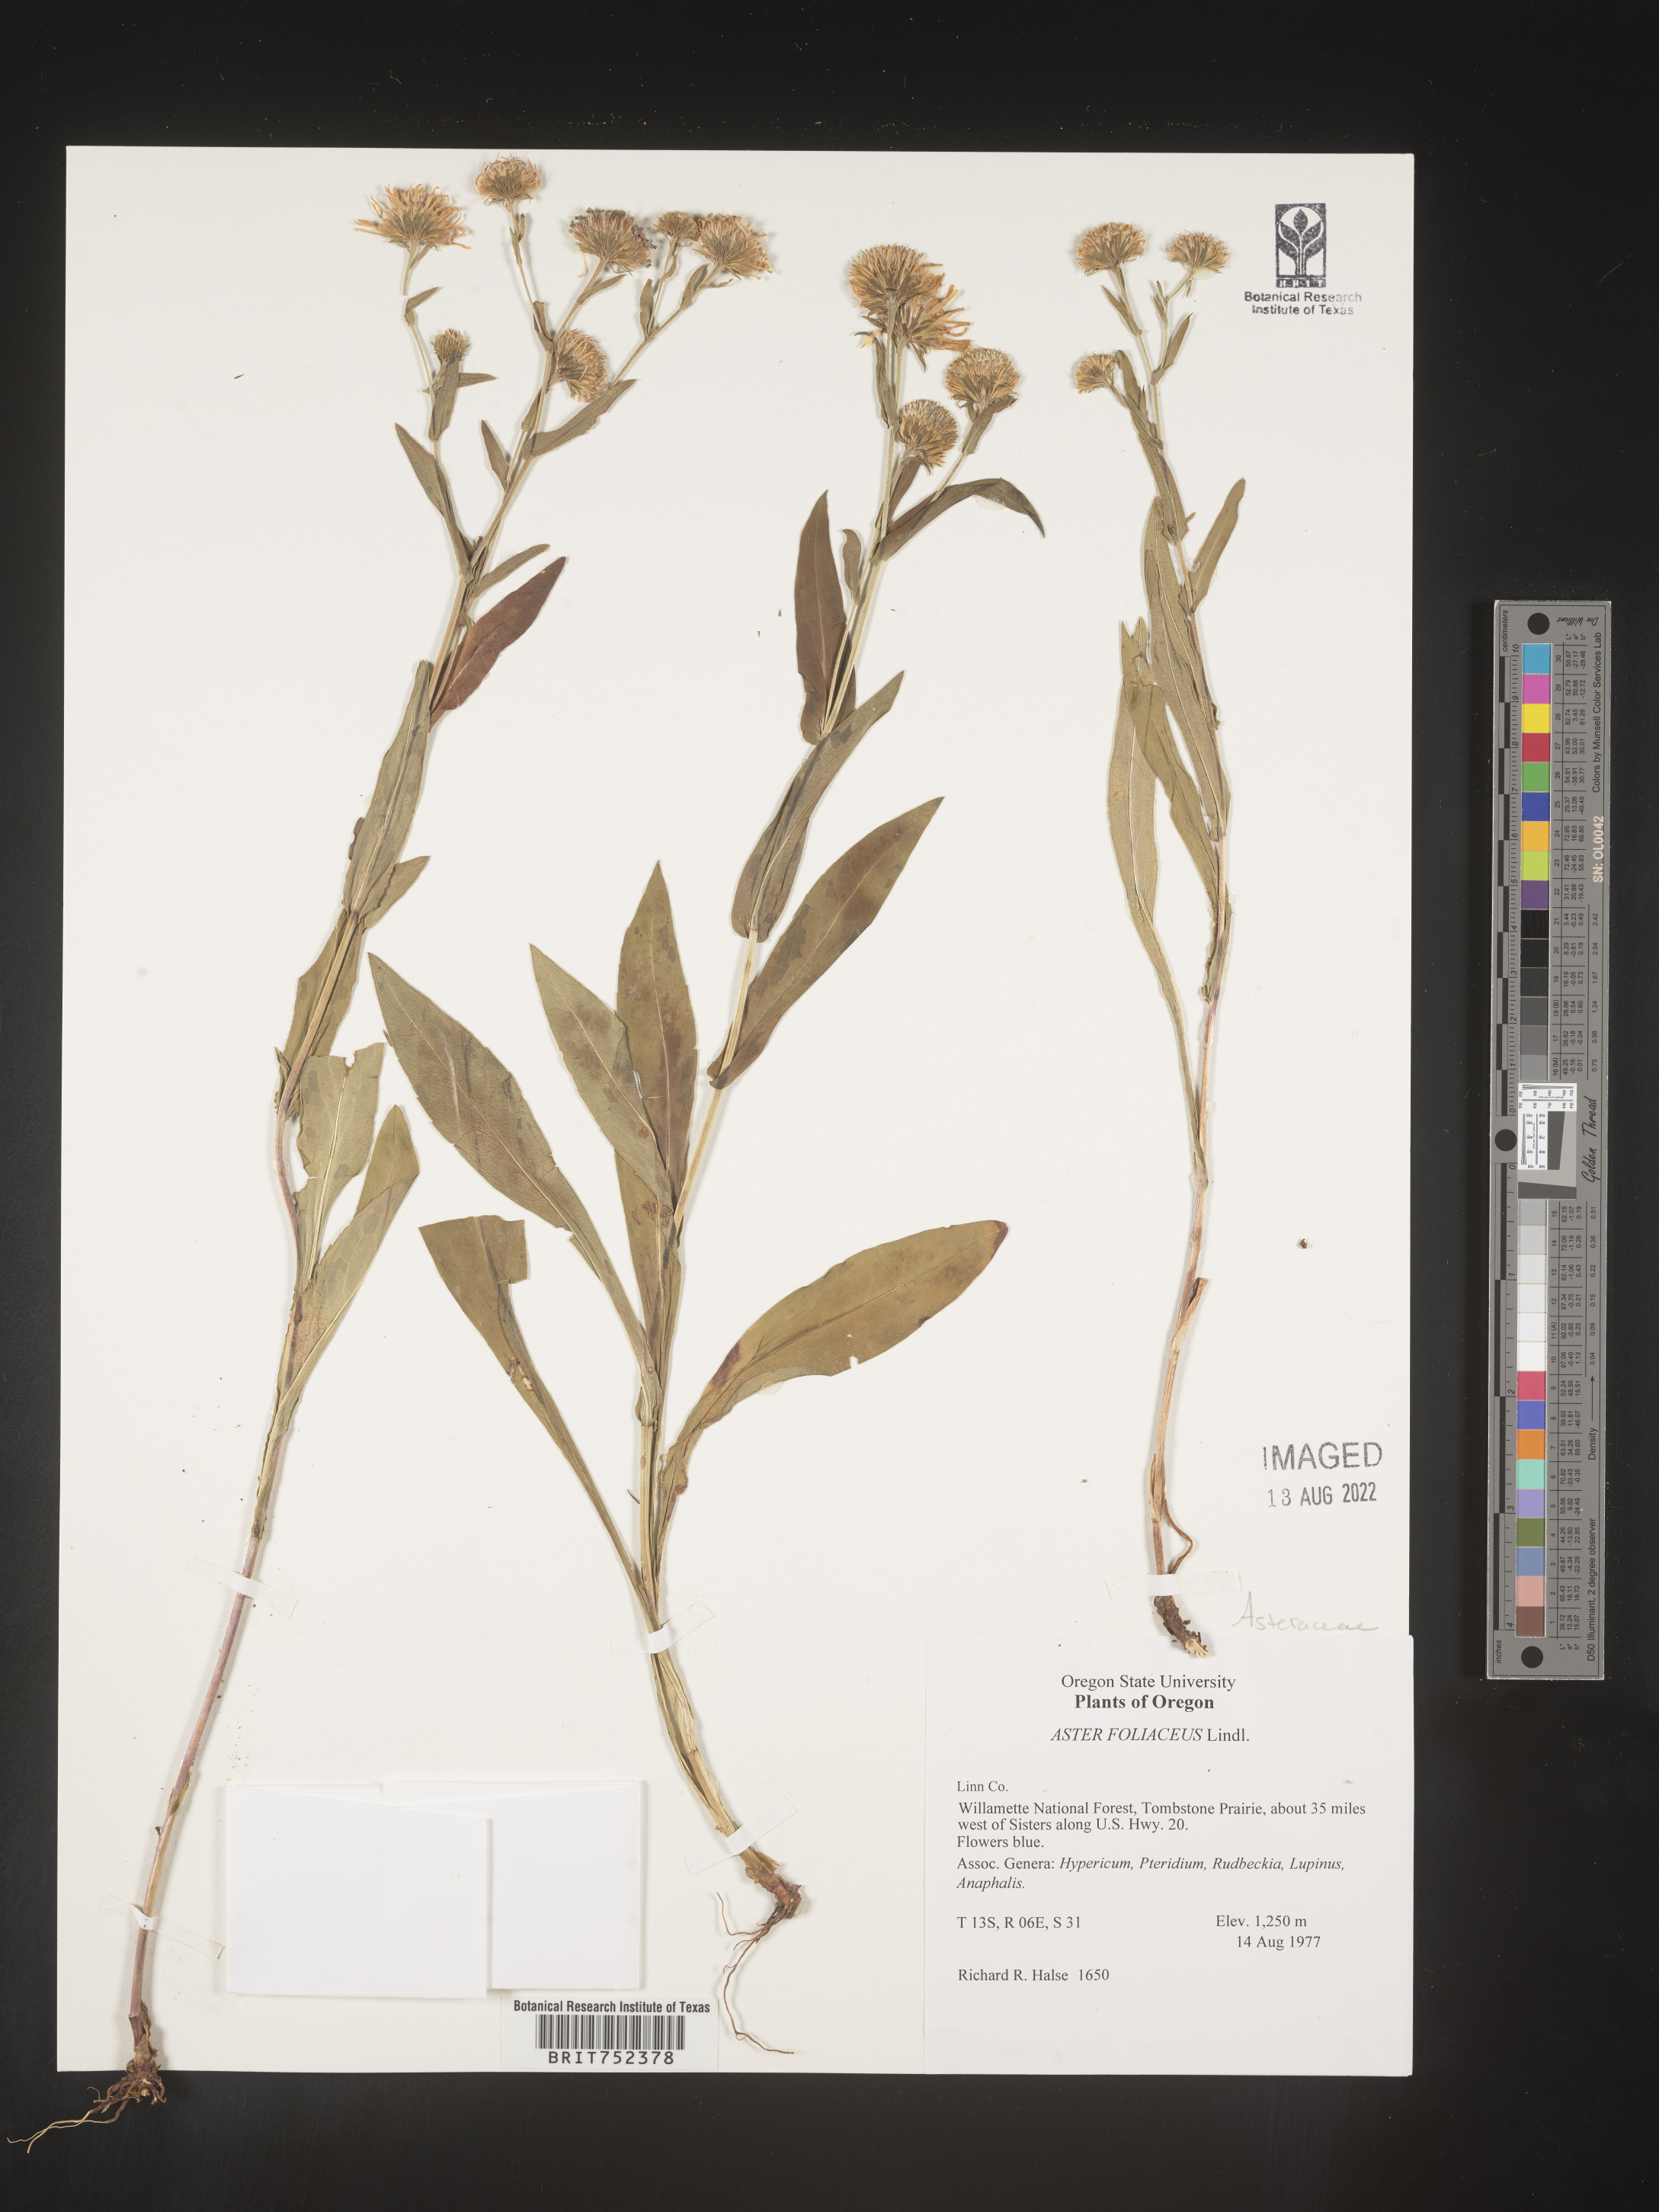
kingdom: Plantae
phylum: Tracheophyta
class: Magnoliopsida
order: Asterales
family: Asteraceae
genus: Symphyotrichum
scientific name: Symphyotrichum foliaceum
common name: Leafy aster
